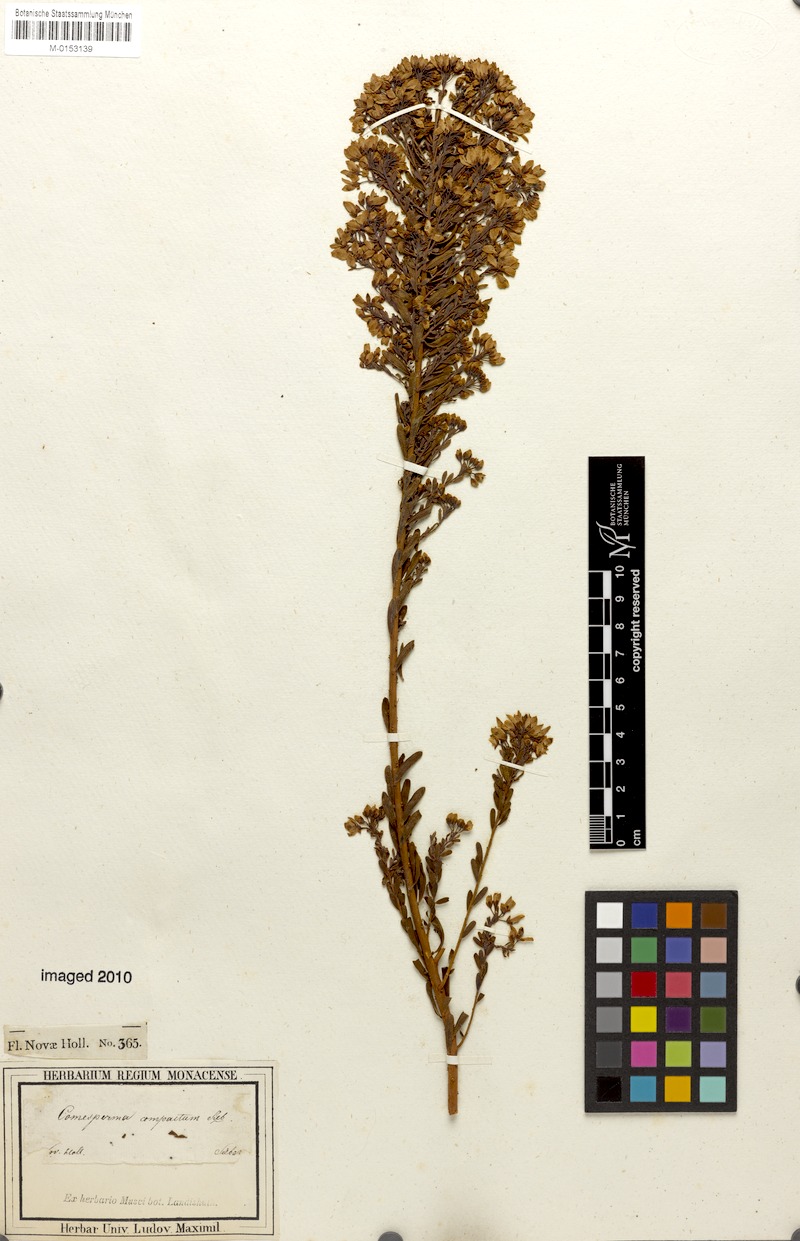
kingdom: Plantae
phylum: Tracheophyta
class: Magnoliopsida
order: Fabales
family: Polygalaceae
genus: Comesperma
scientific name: Comesperma retusum
